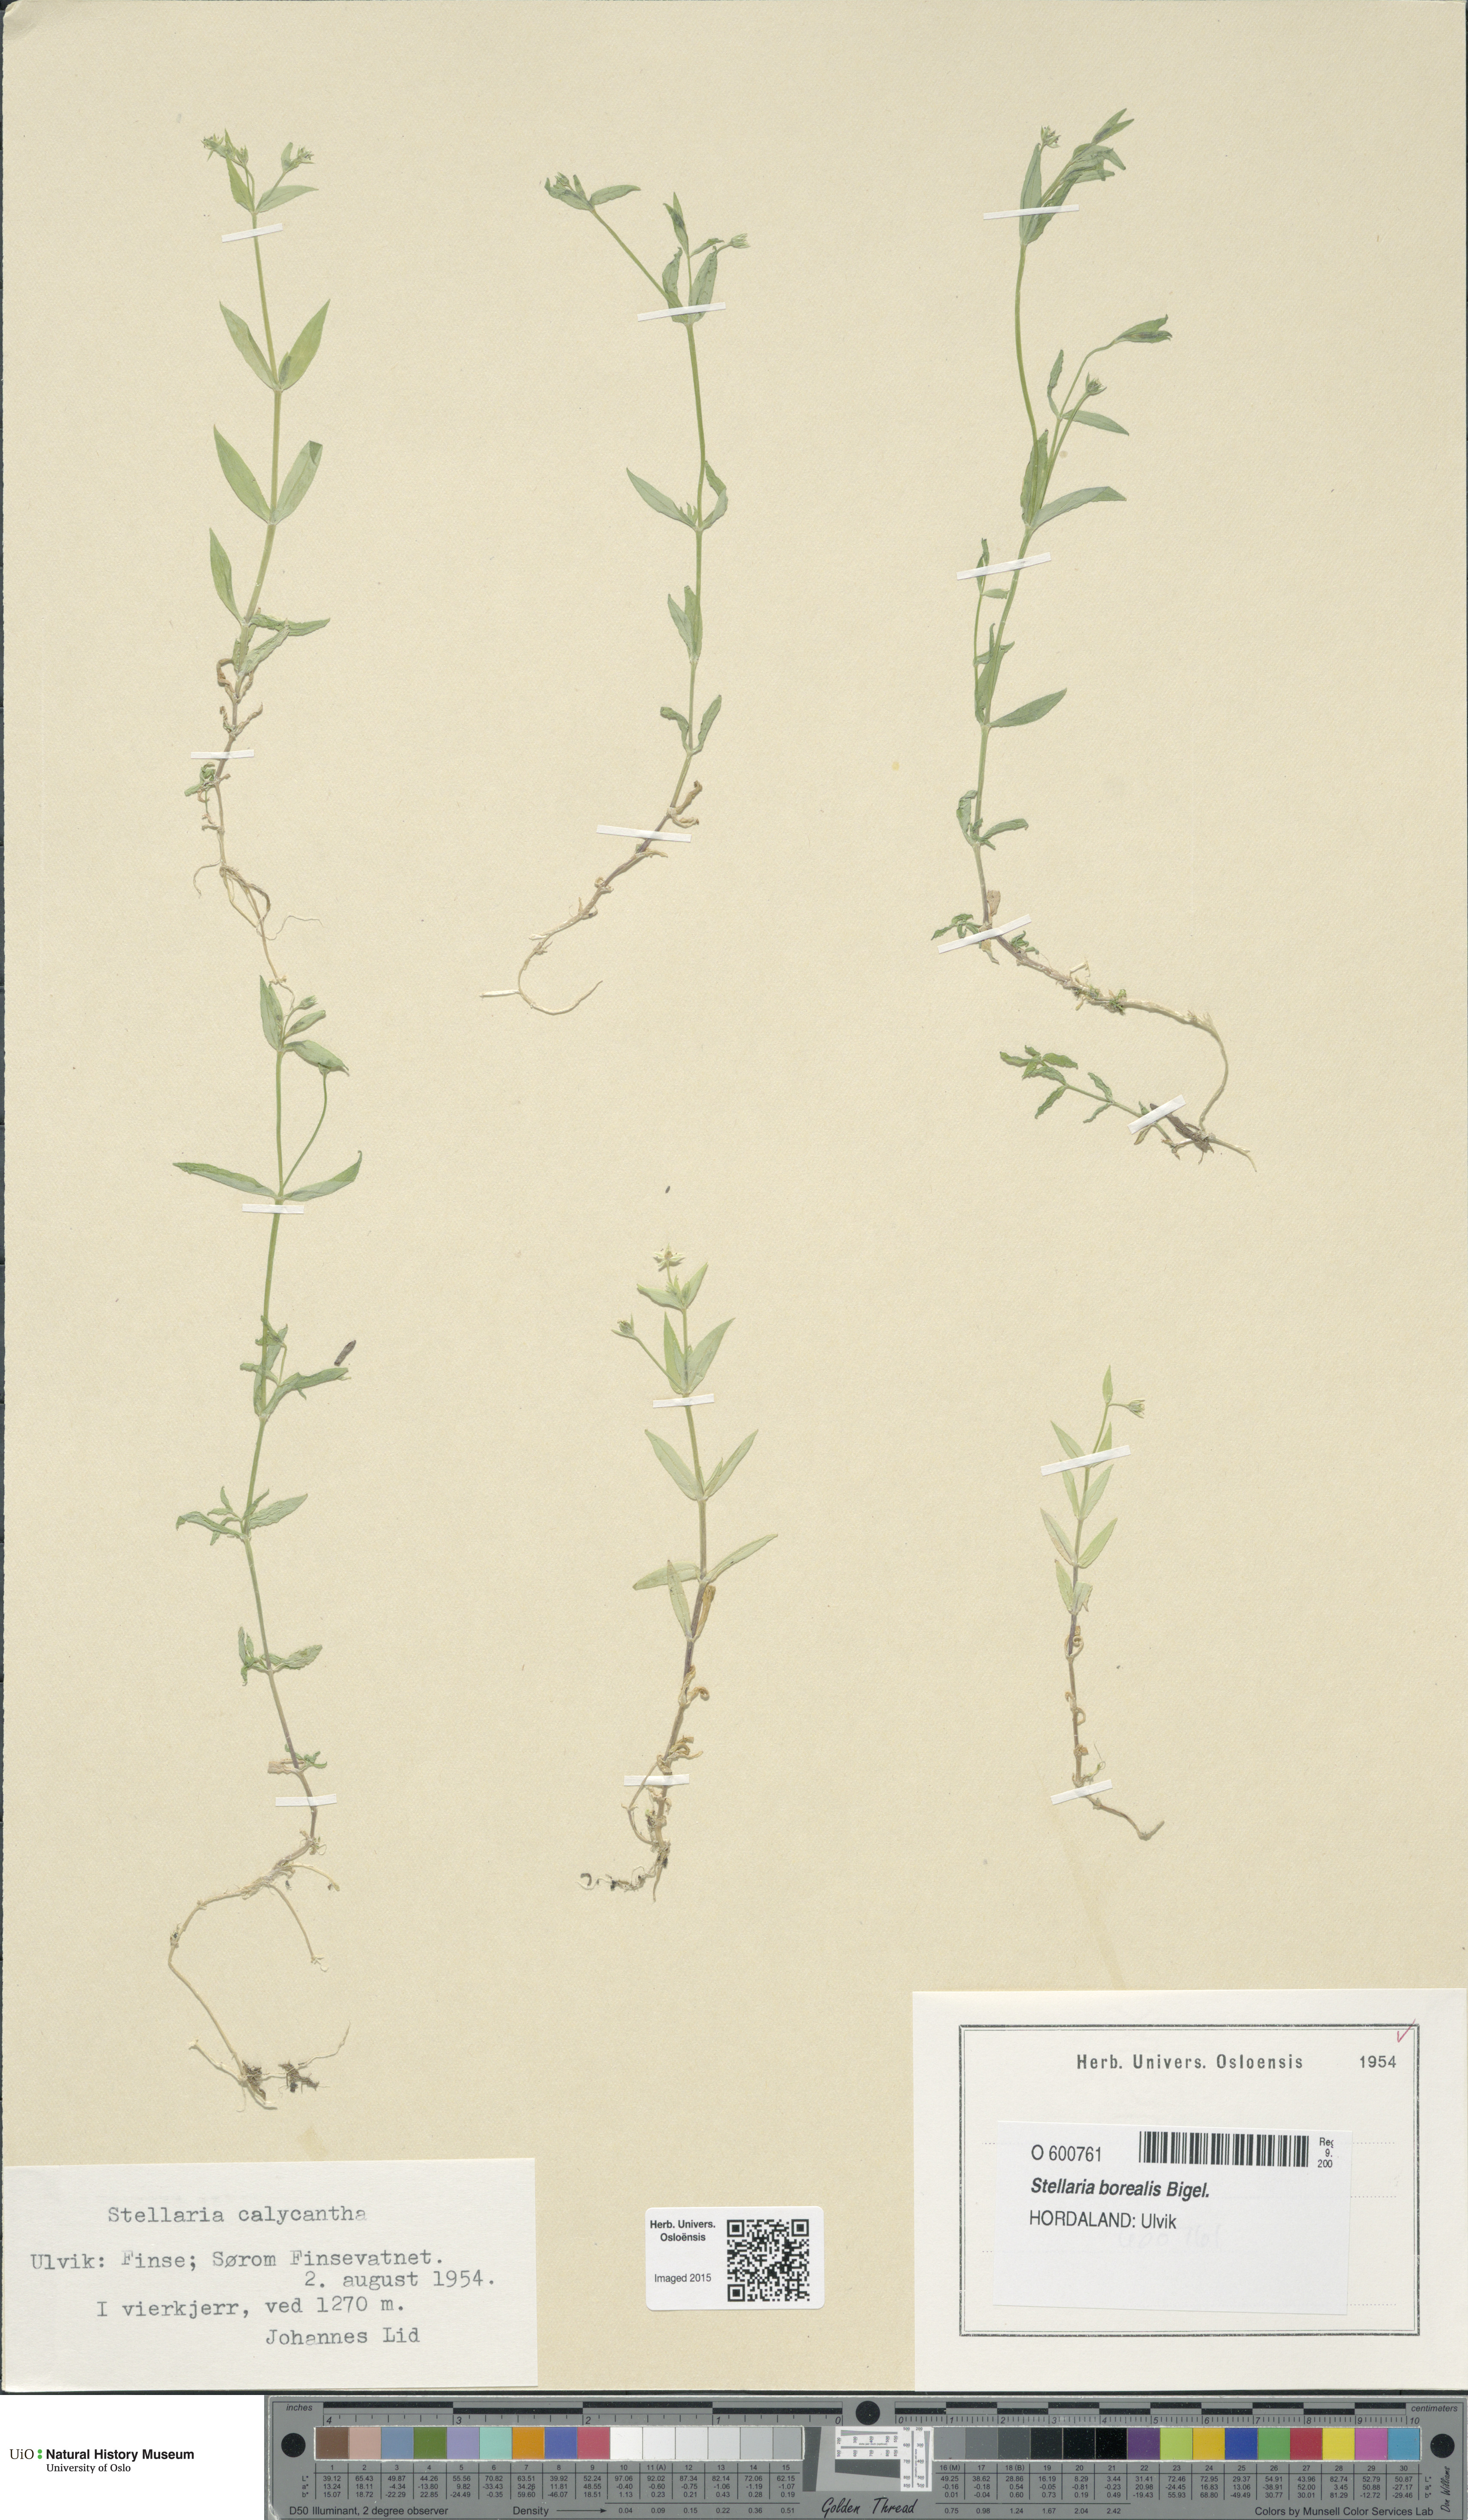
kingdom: Plantae
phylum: Tracheophyta
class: Magnoliopsida
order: Caryophyllales
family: Caryophyllaceae
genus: Stellaria
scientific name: Stellaria borealis
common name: Boreal starwort
